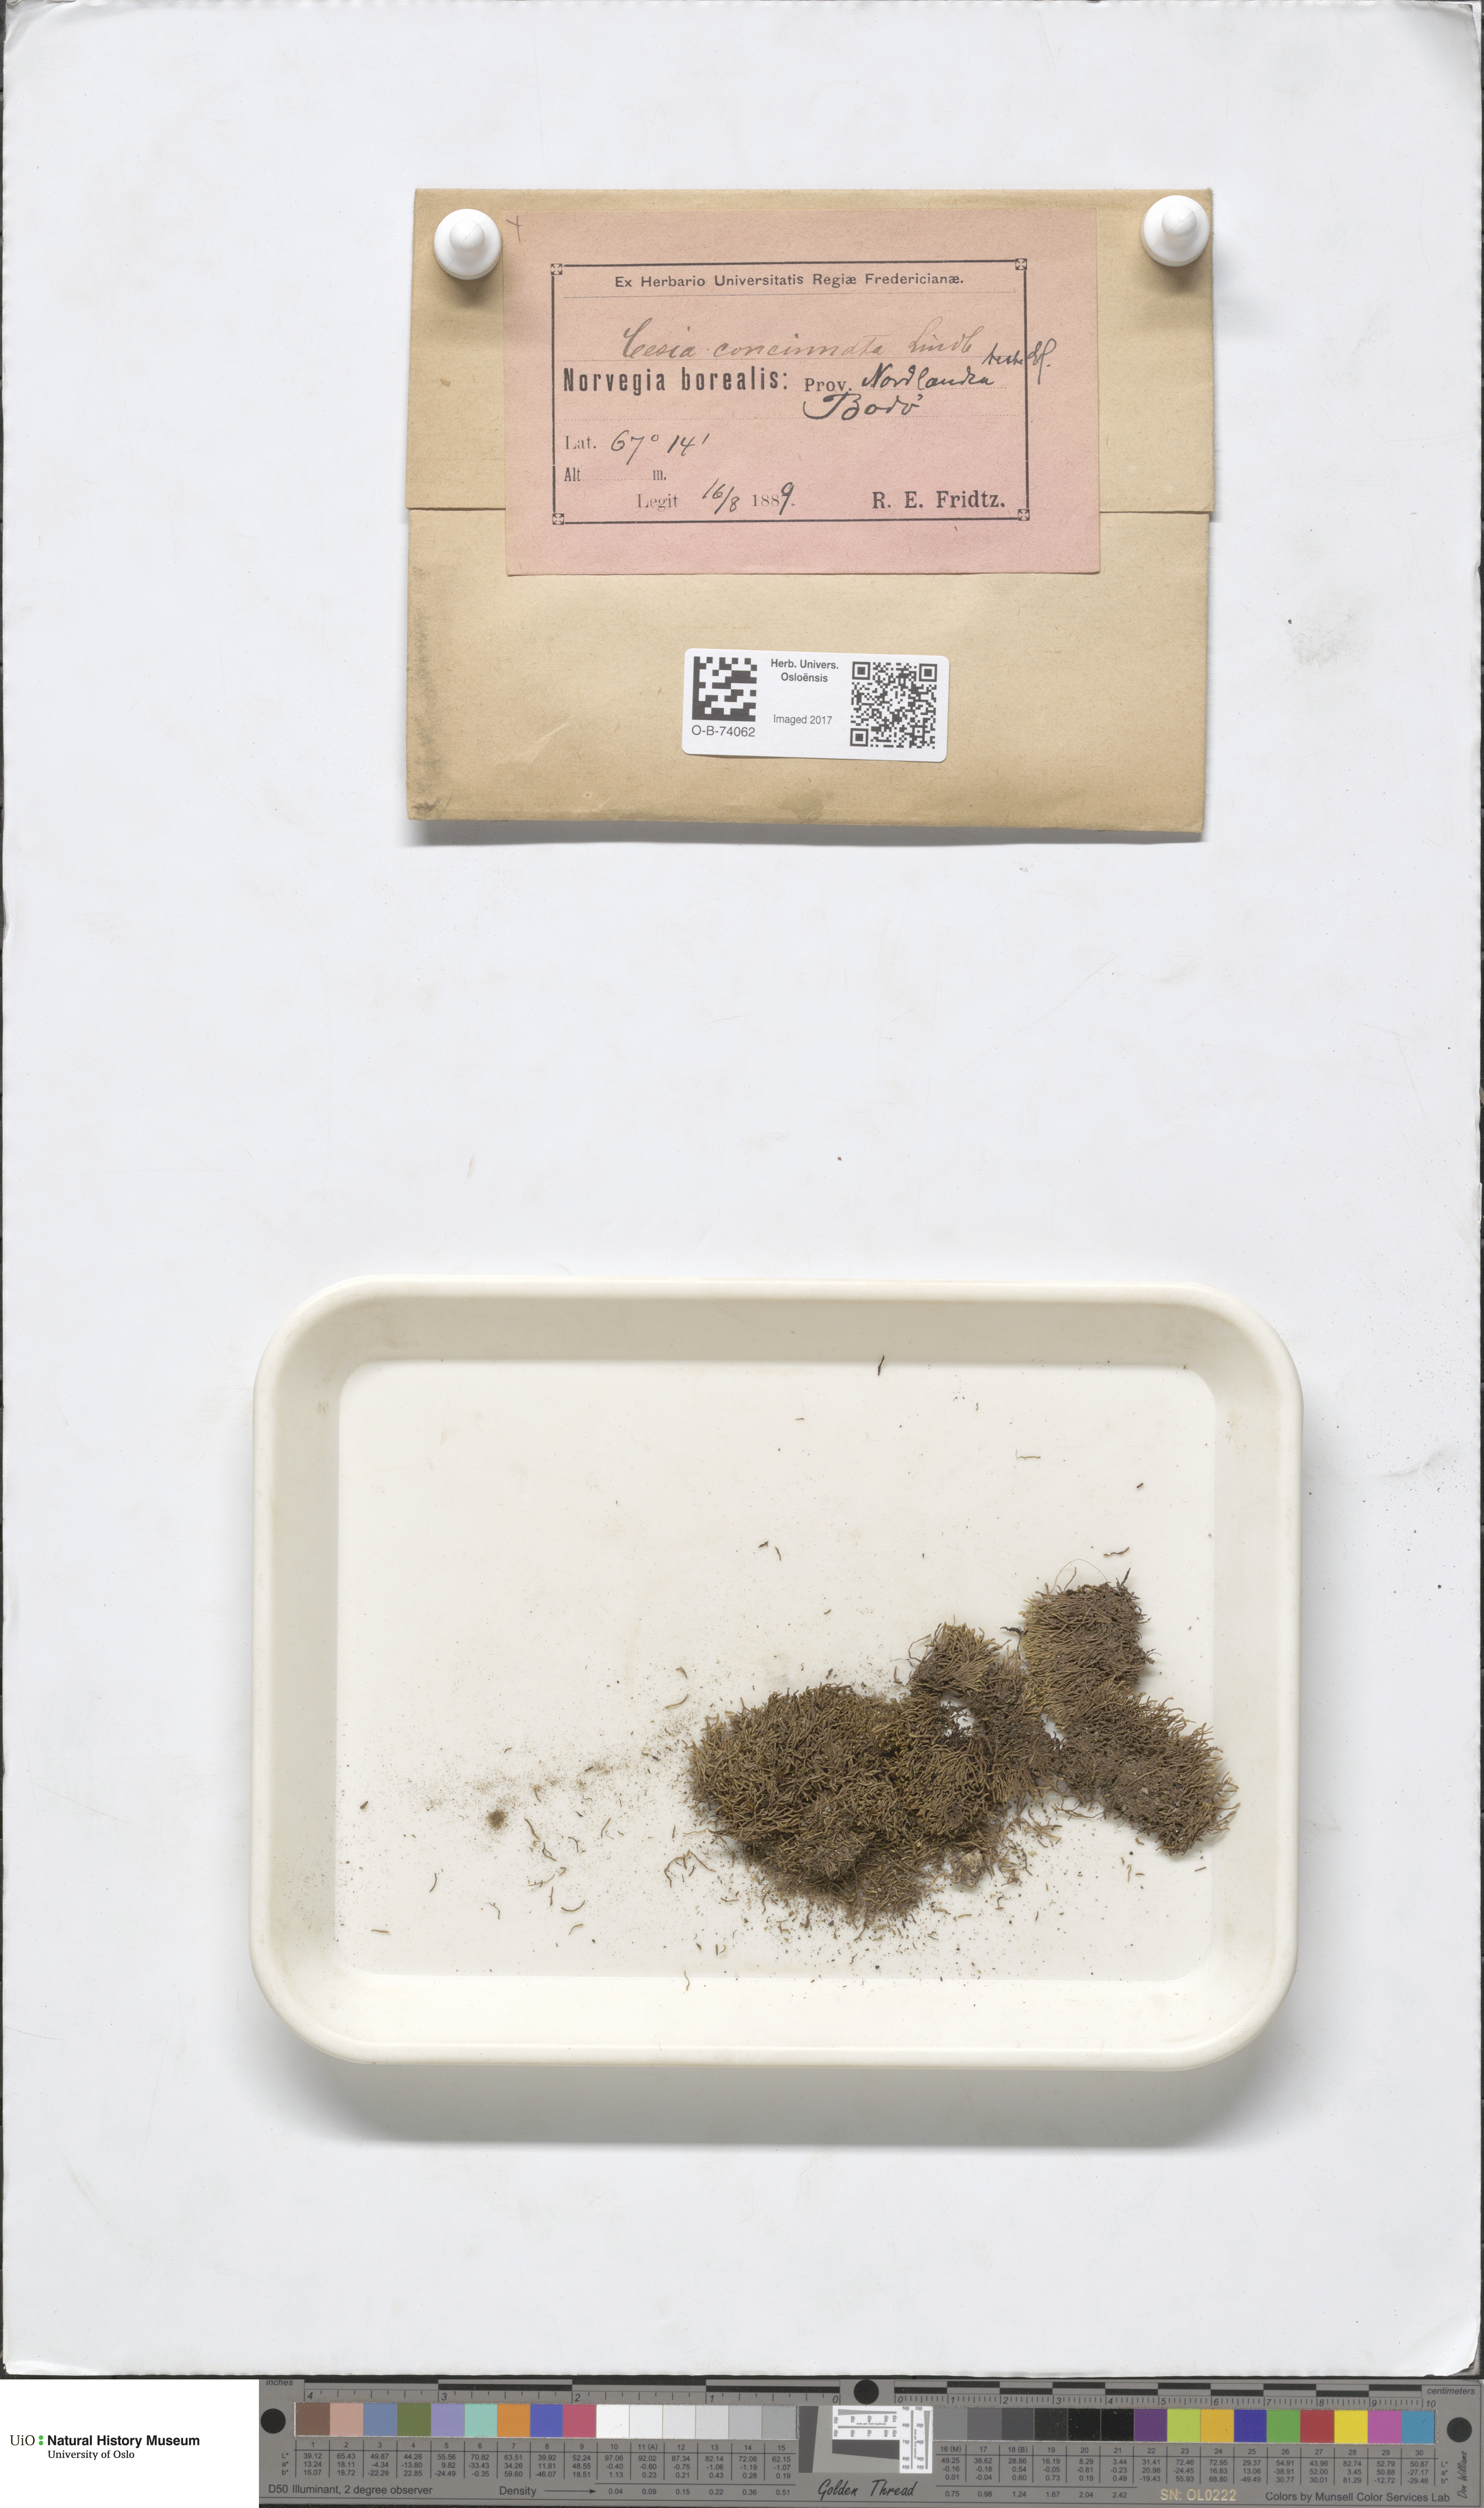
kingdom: Plantae
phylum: Marchantiophyta
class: Jungermanniopsida
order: Jungermanniales
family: Gymnomitriaceae
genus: Marsupella
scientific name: Marsupella apiculata
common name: Pointed frostwort
